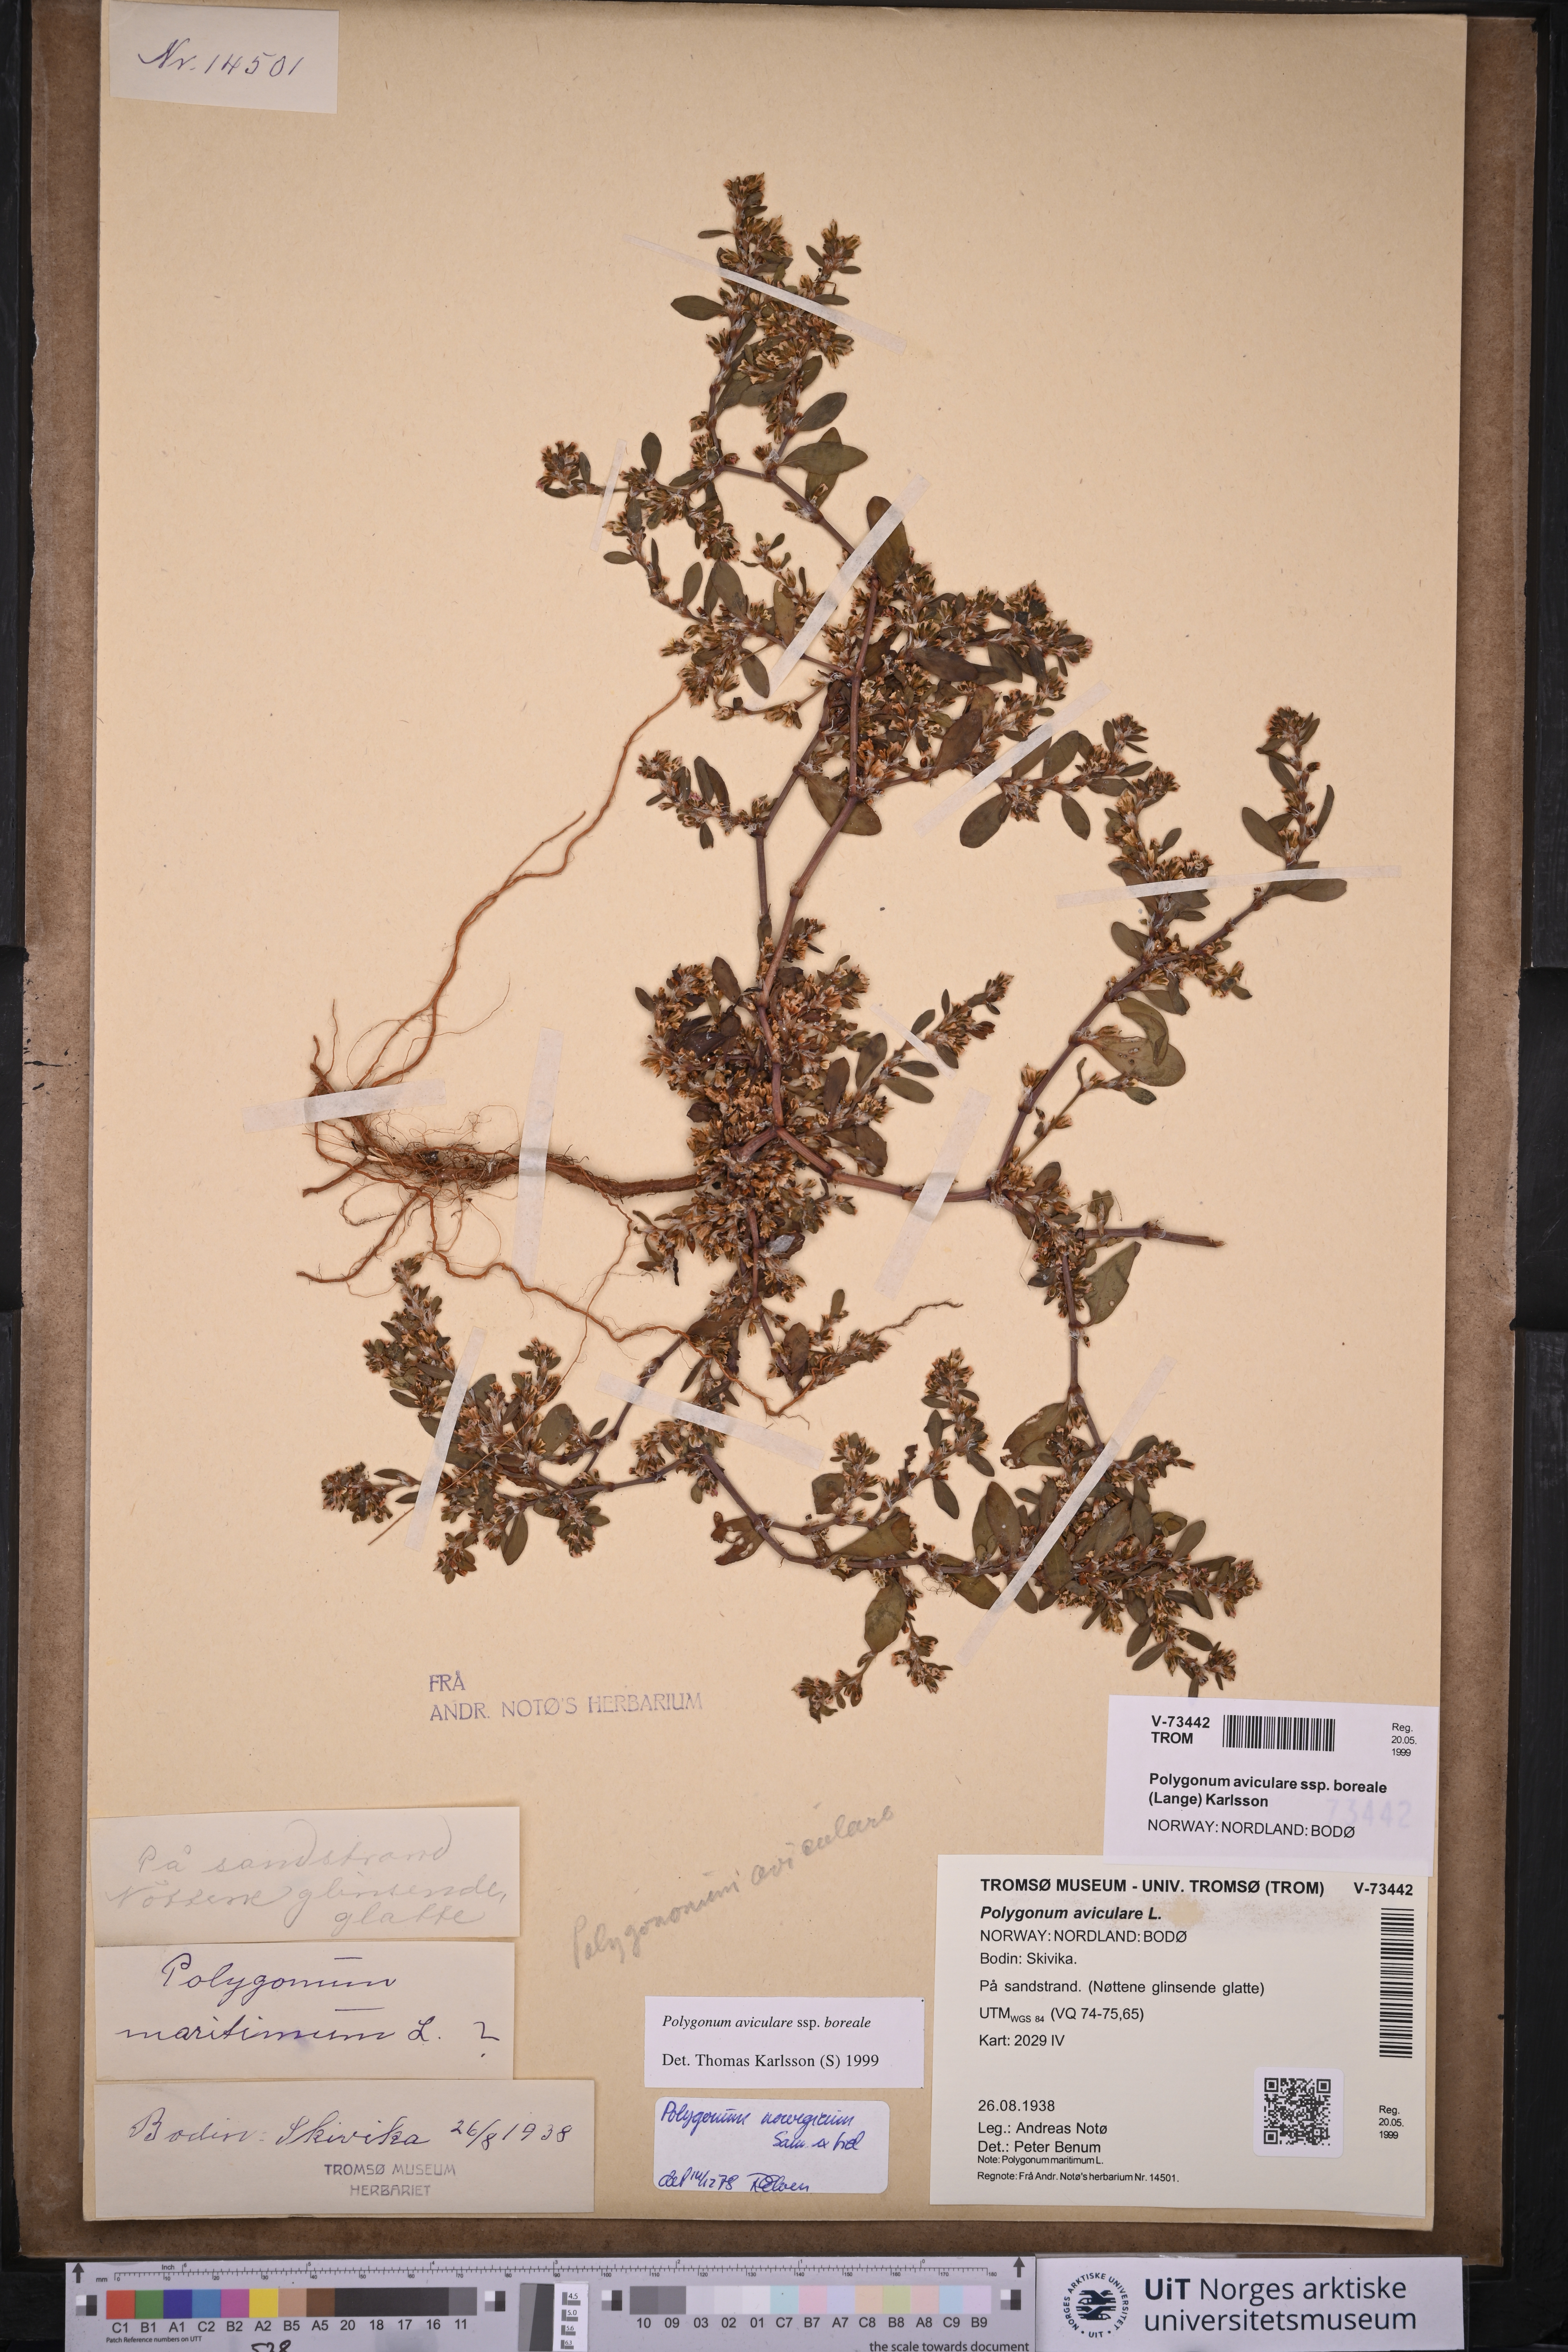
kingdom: Plantae
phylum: Tracheophyta
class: Magnoliopsida
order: Caryophyllales
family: Polygonaceae
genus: Polygonum
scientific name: Polygonum boreale
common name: Northern knotgrass
